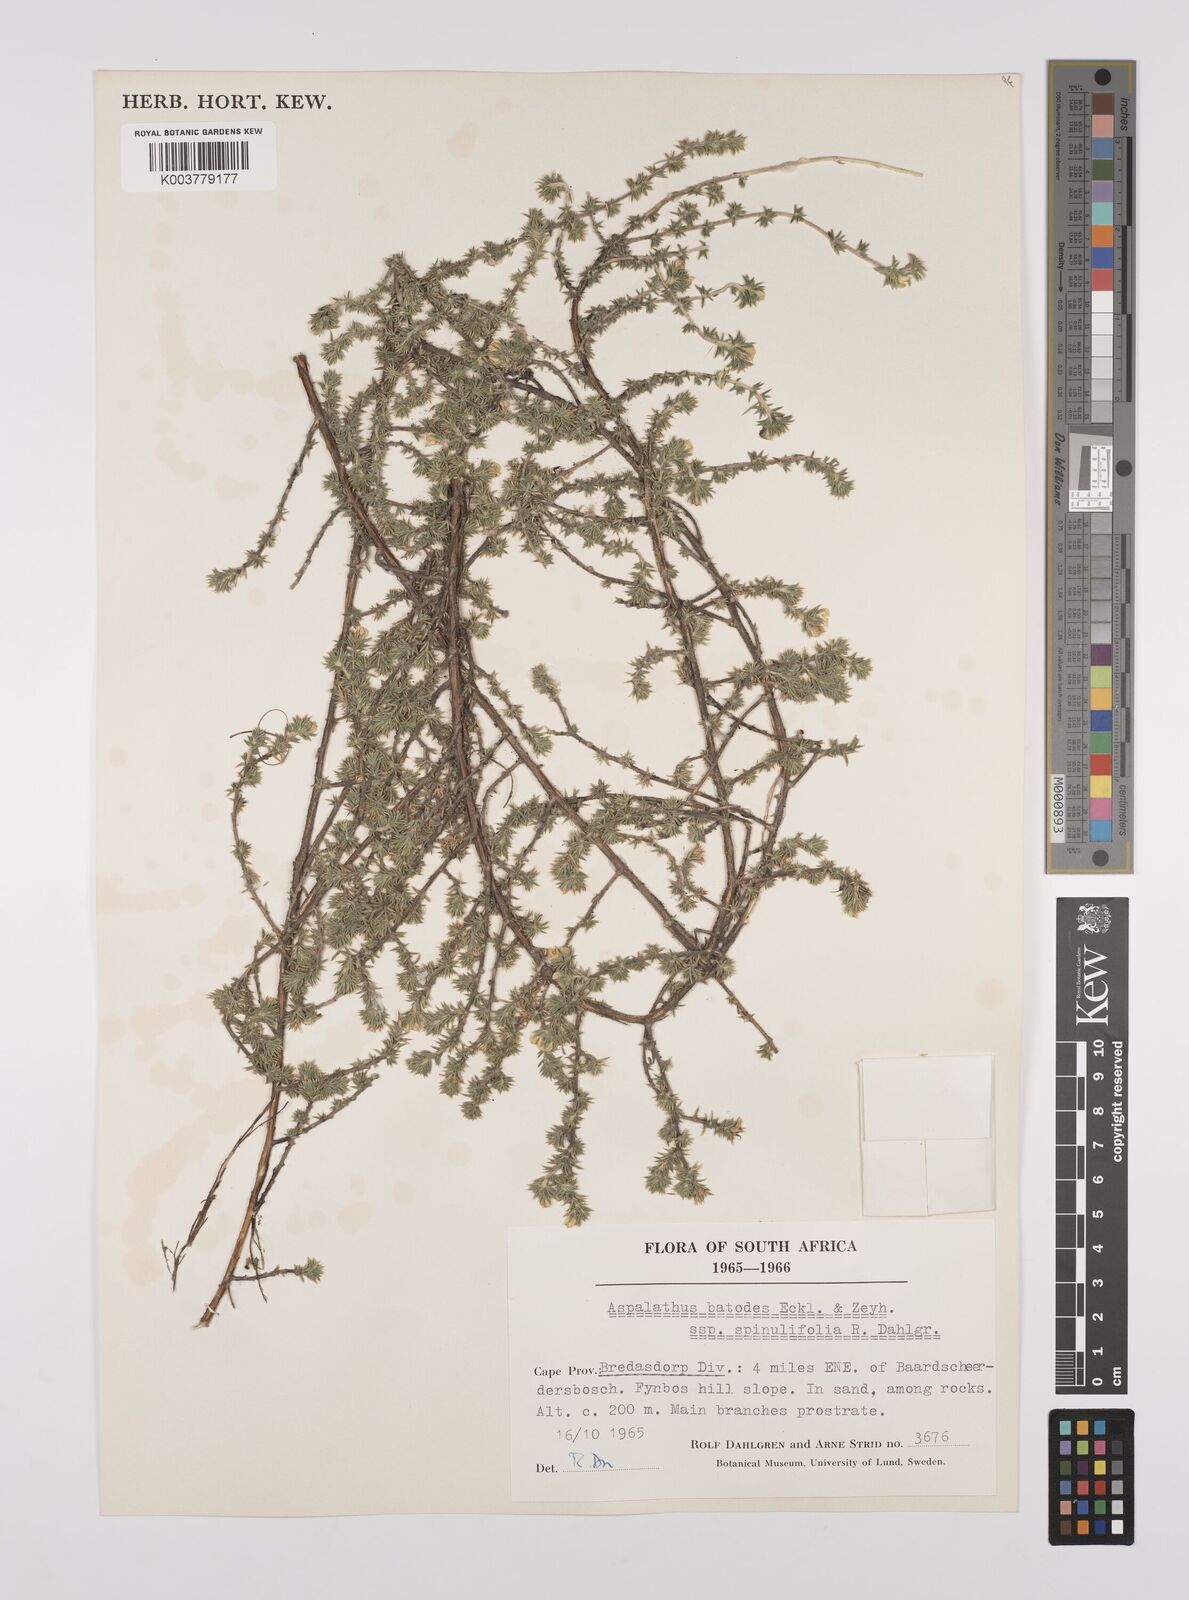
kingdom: Plantae
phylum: Tracheophyta
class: Magnoliopsida
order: Fabales
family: Fabaceae
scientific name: Fabaceae
